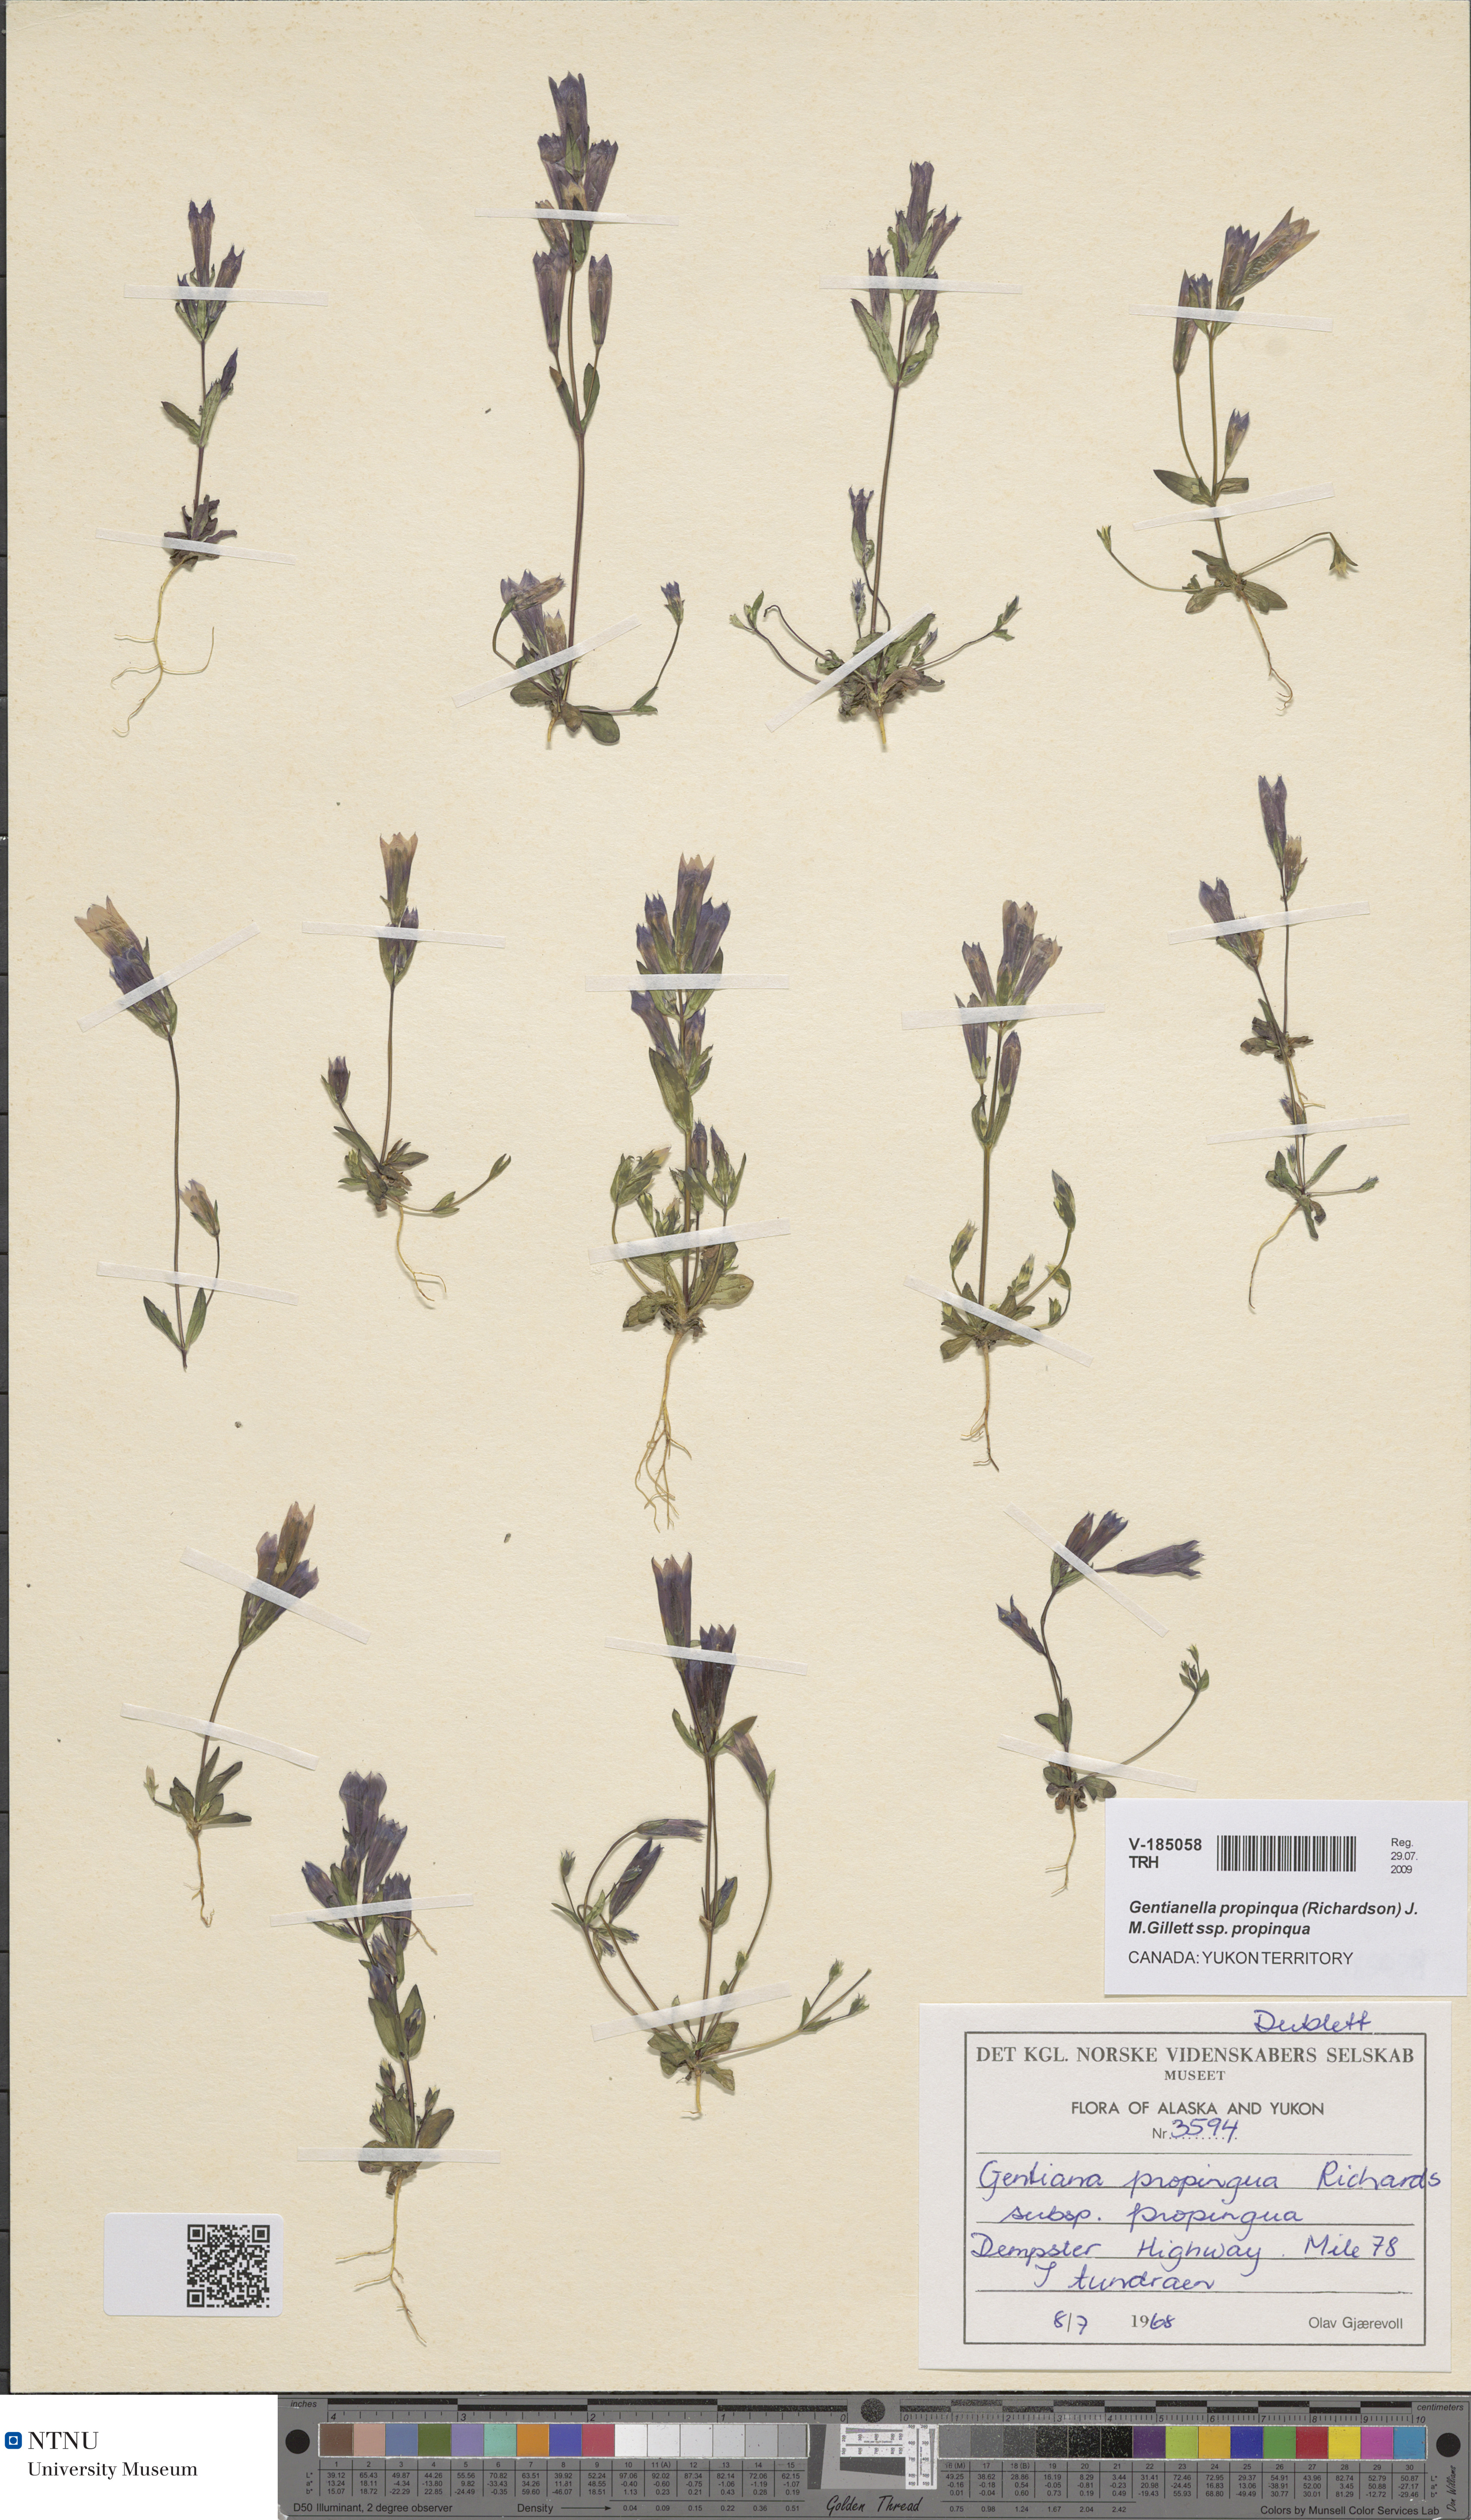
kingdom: Plantae
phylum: Tracheophyta
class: Magnoliopsida
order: Gentianales
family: Gentianaceae
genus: Gentianella
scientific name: Gentianella propinqua
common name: Four-parted dwarf-gentian
